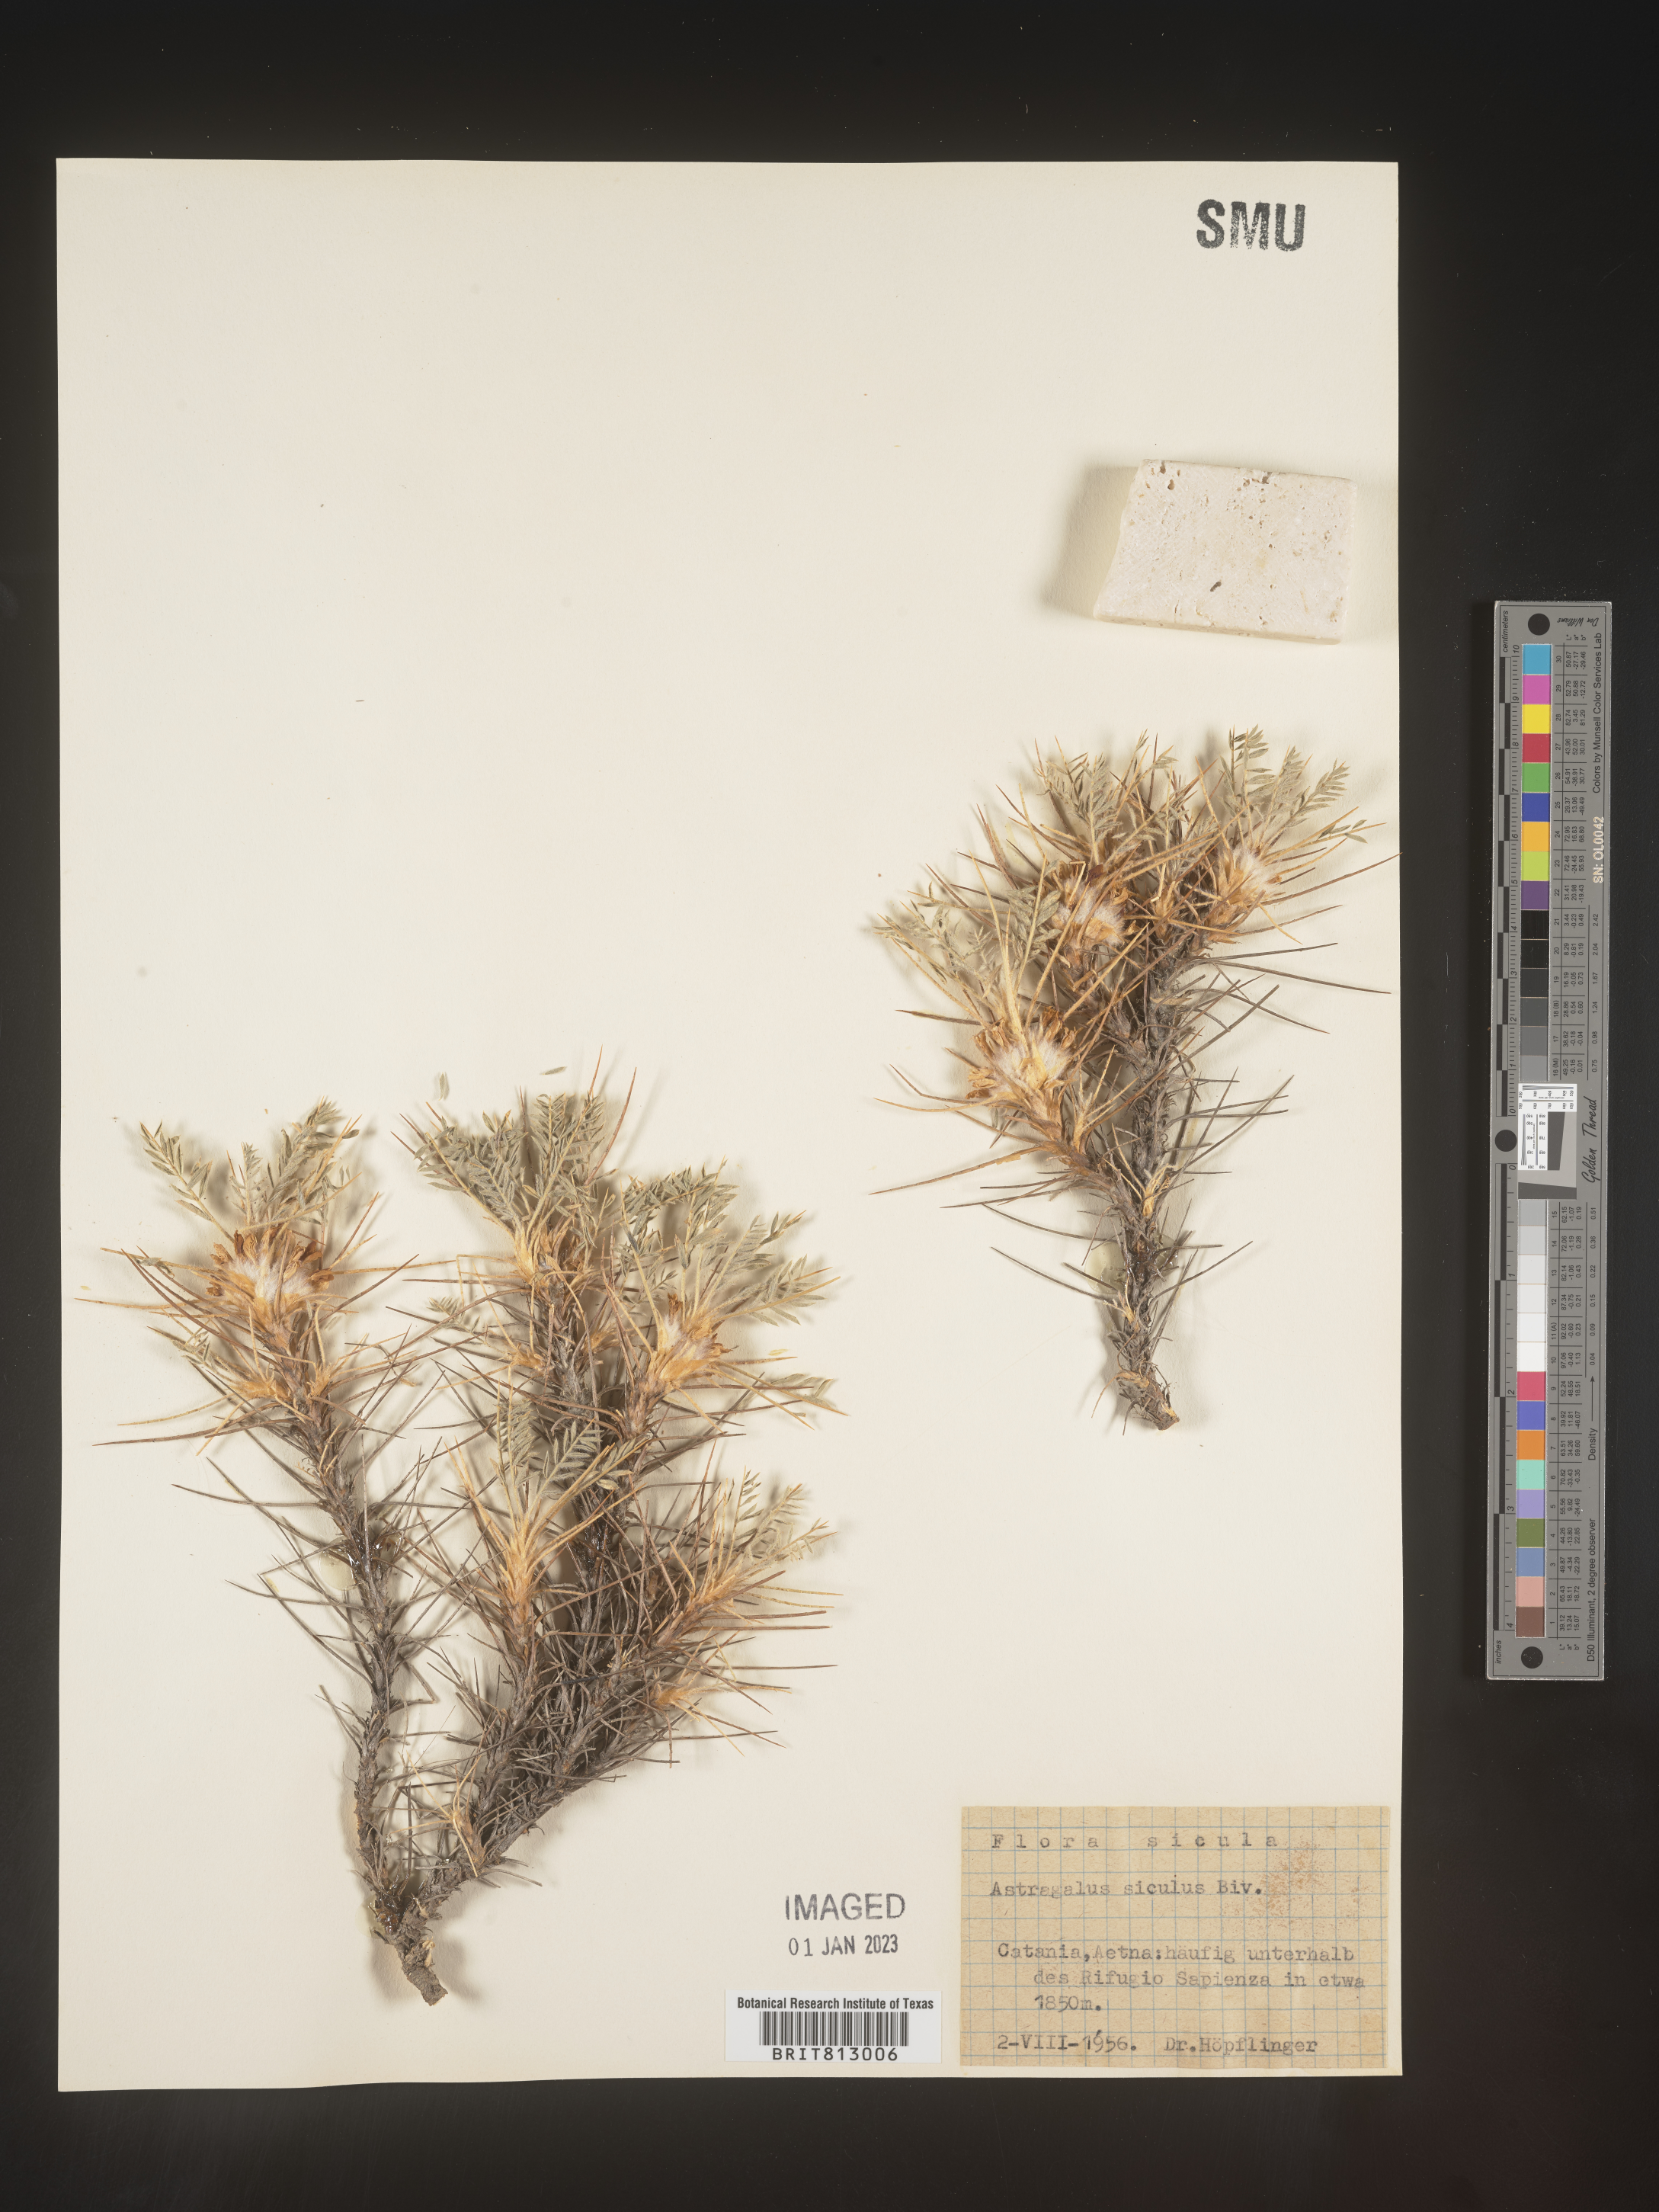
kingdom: Plantae
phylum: Tracheophyta
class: Magnoliopsida
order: Fabales
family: Fabaceae
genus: Astragalus
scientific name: Astragalus
